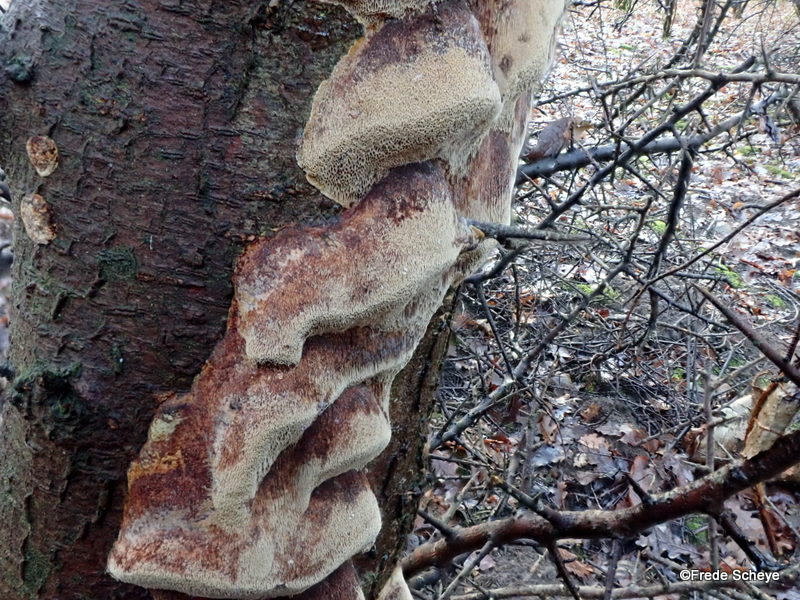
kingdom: Fungi
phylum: Basidiomycota
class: Agaricomycetes
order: Hymenochaetales
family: Hymenochaetaceae
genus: Phellinus
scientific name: Phellinus pomaceus
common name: blomme-ildporesvamp
